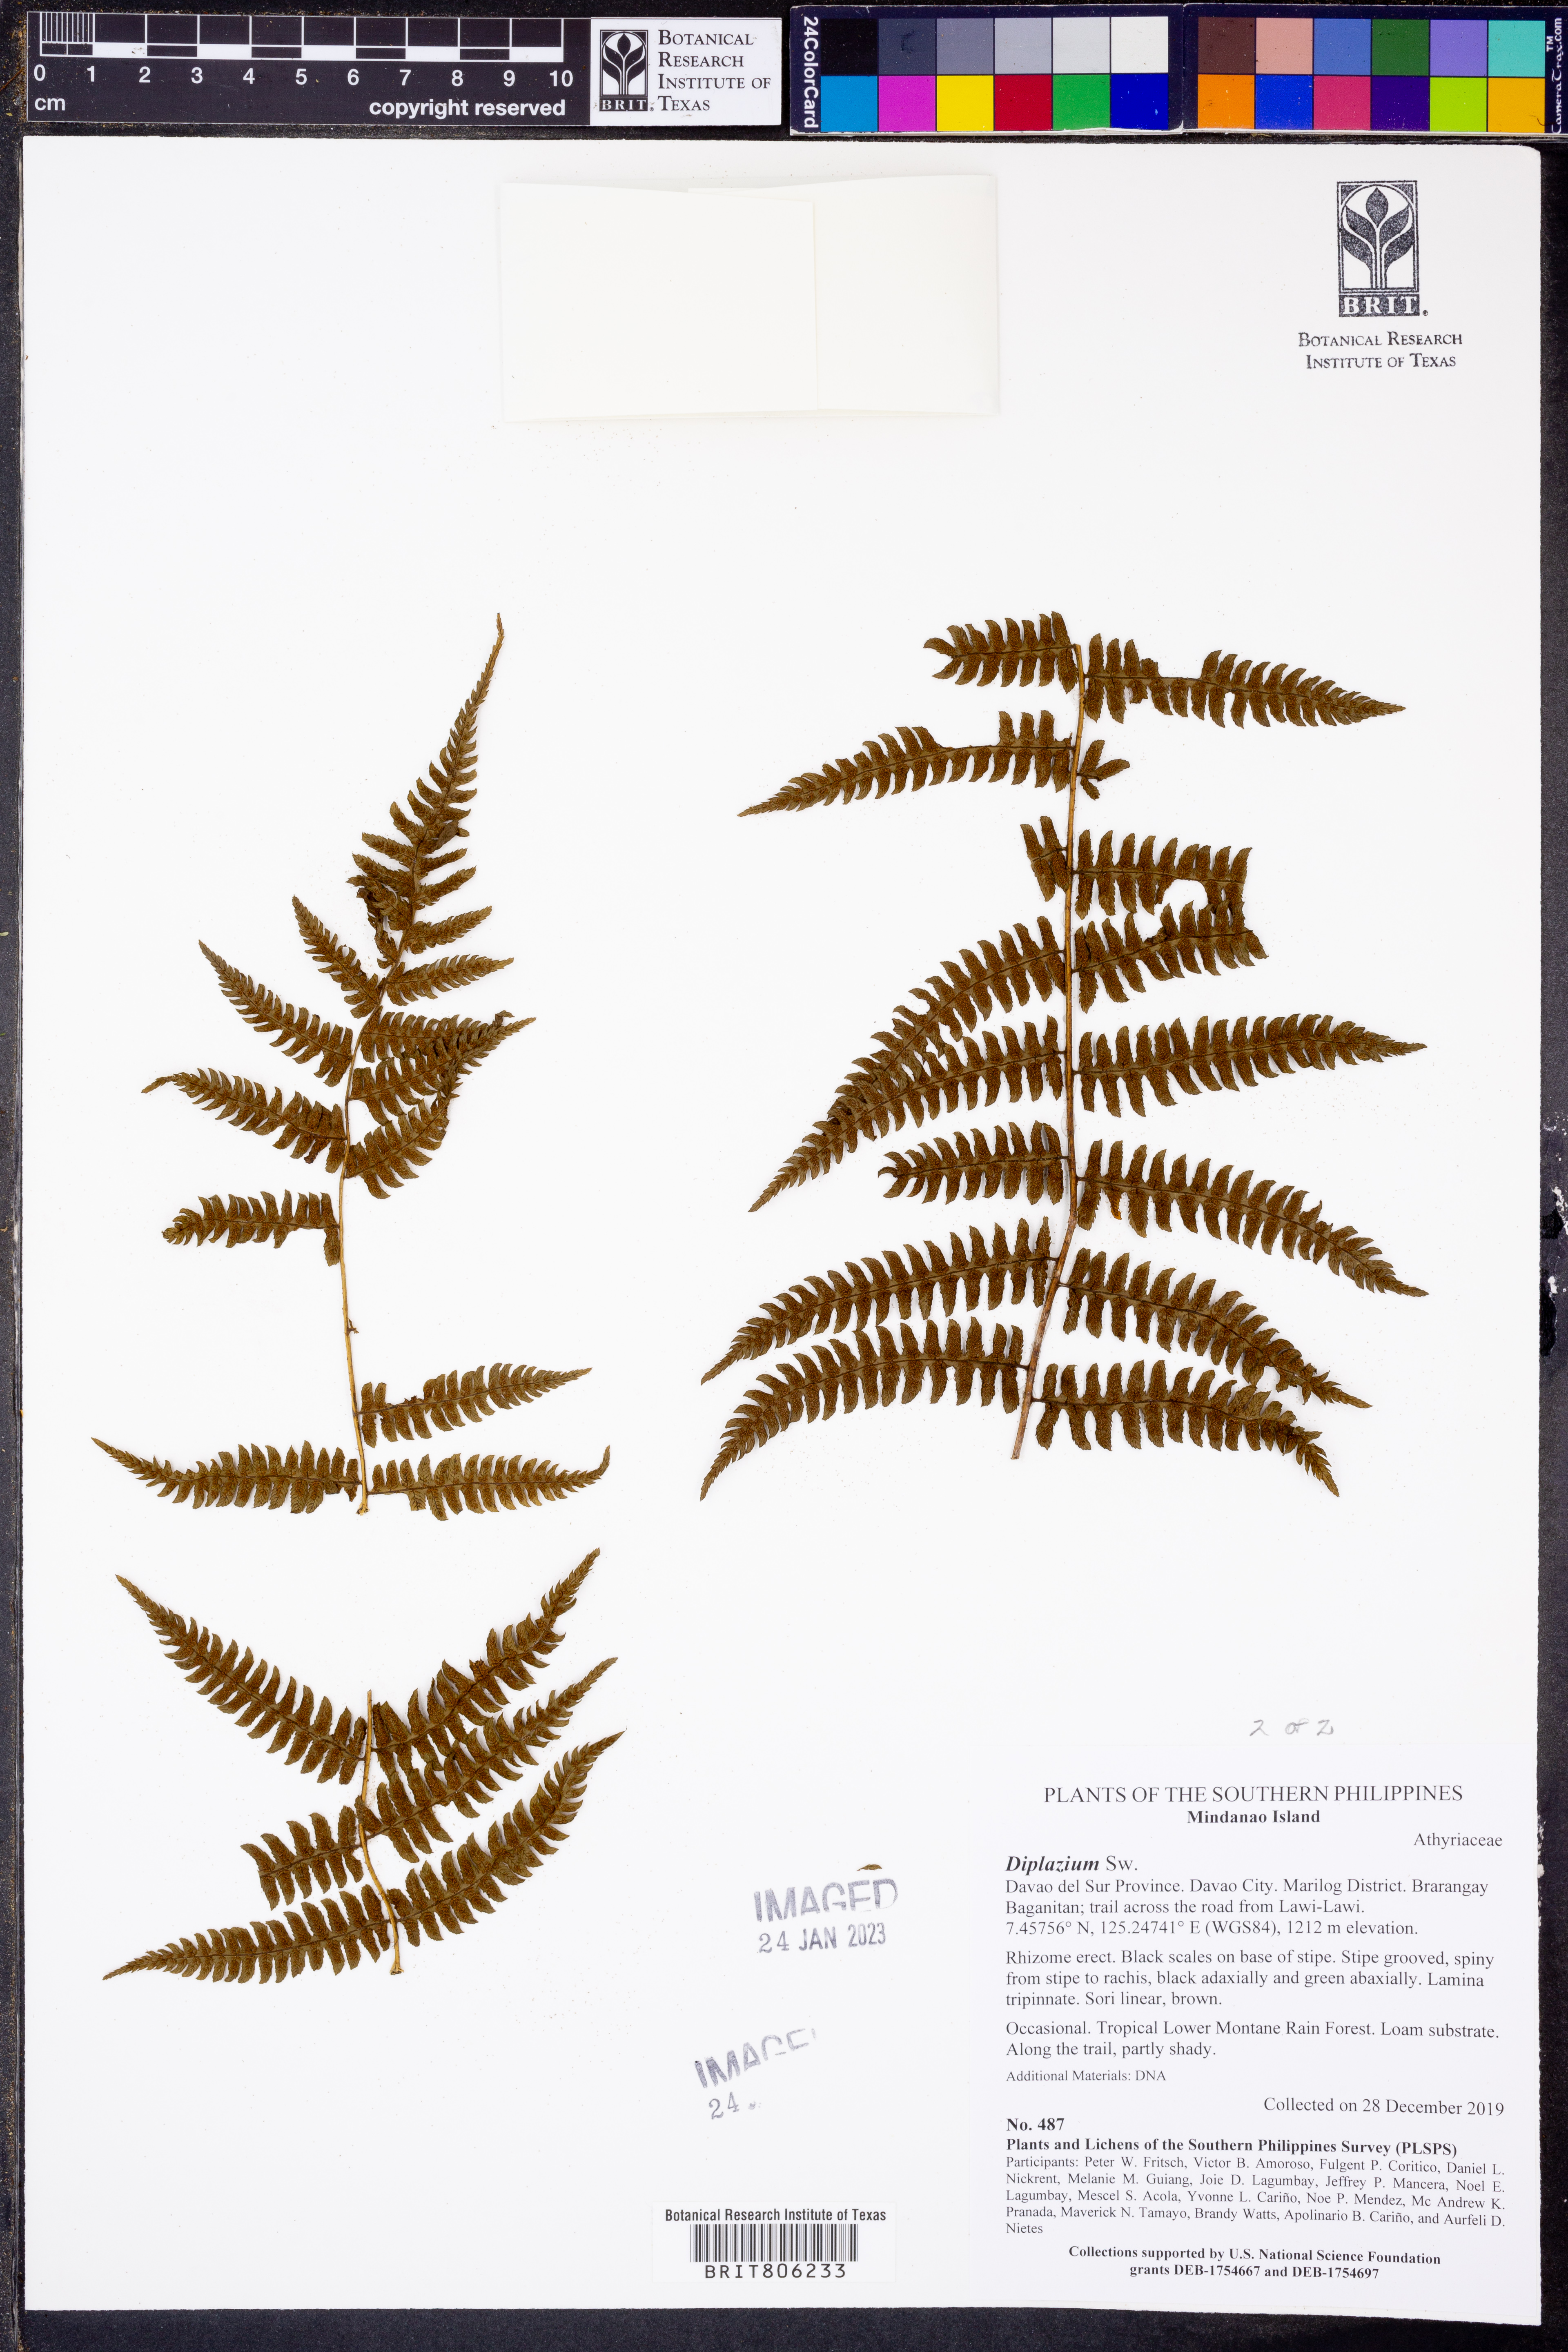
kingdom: Plantae
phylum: Tracheophyta
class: Polypodiopsida
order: Polypodiales
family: Athyriaceae
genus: Diplazium
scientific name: Diplazium
